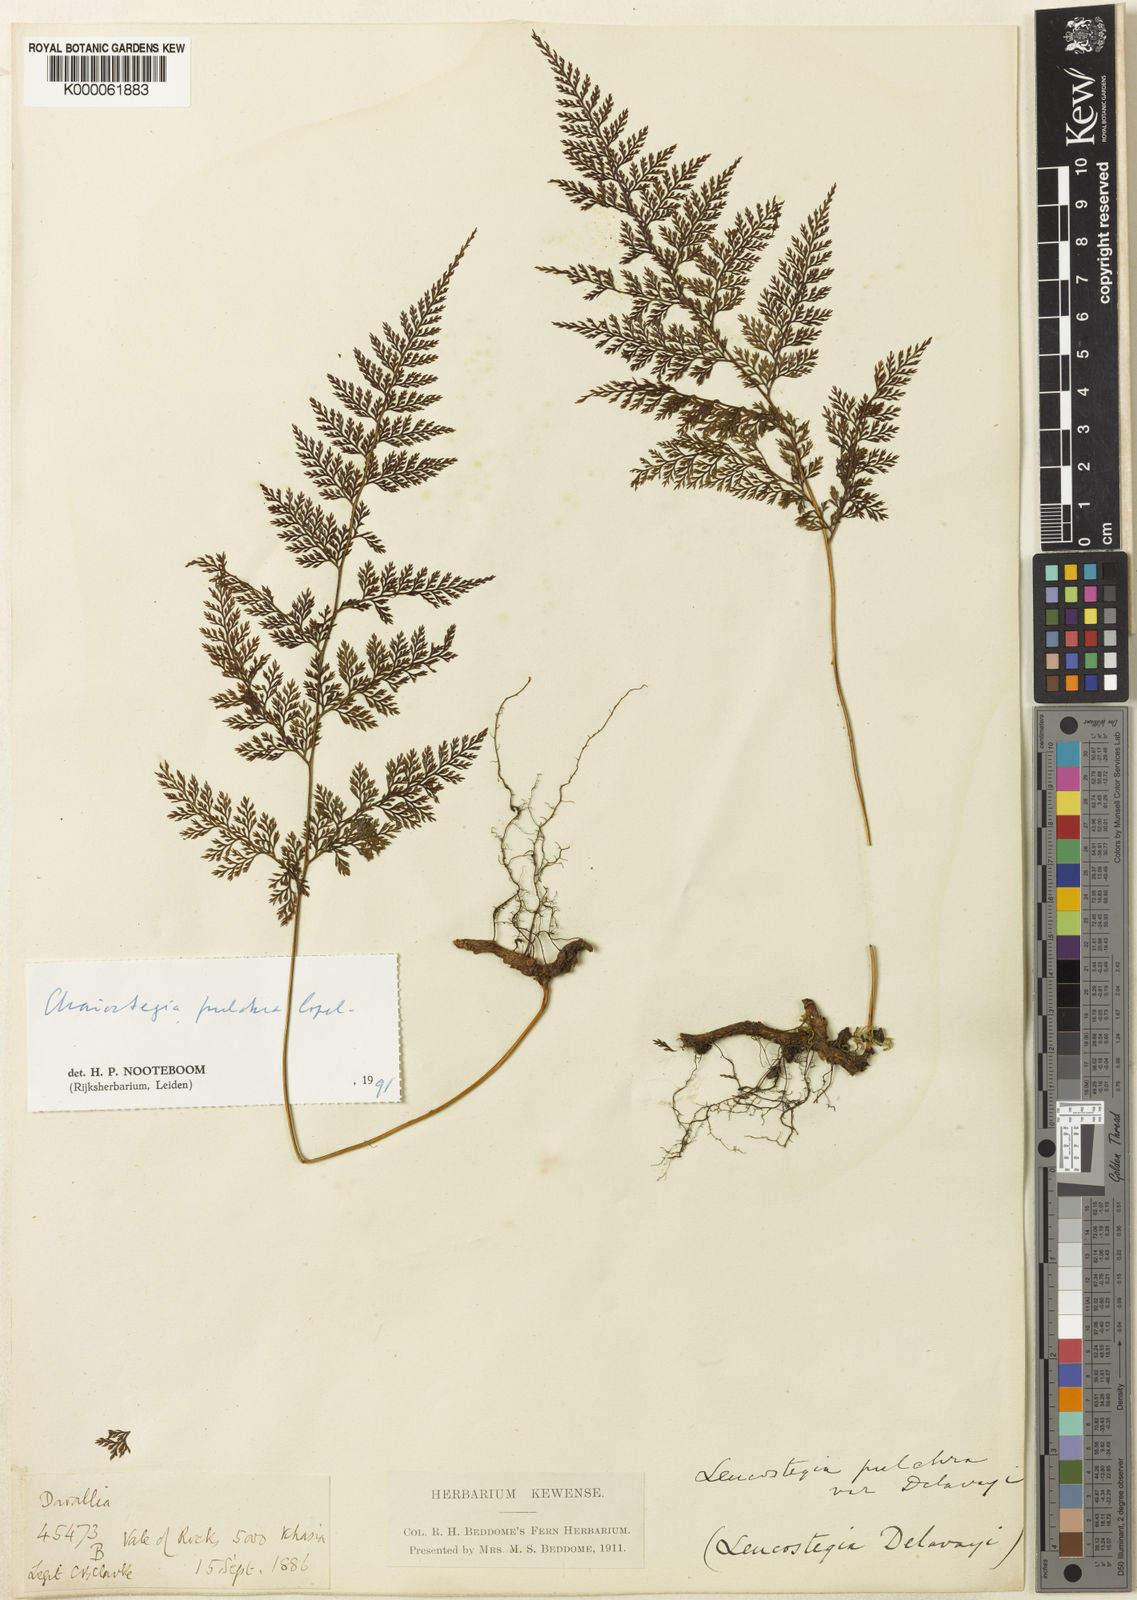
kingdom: Plantae
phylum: Tracheophyta
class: Polypodiopsida
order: Polypodiales
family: Davalliaceae
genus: Davallodes
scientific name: Davallodes pulchra
